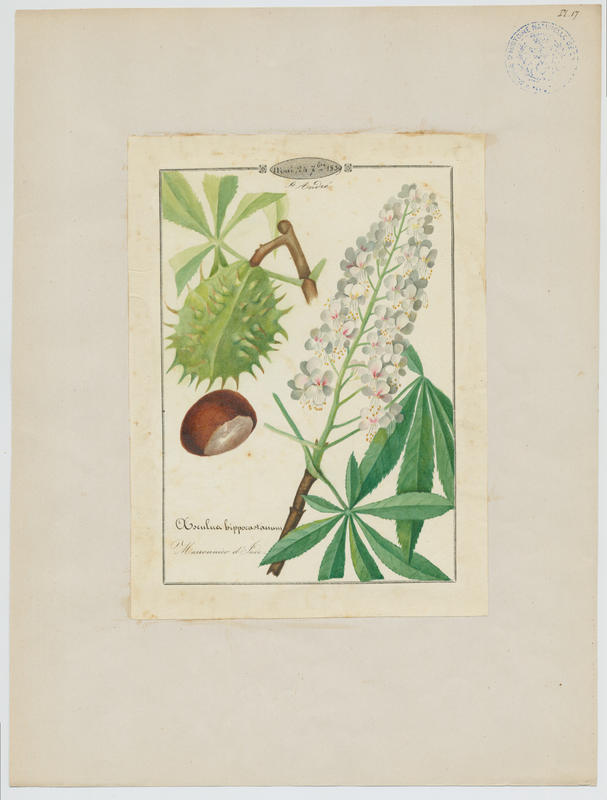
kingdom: Plantae
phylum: Tracheophyta
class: Magnoliopsida
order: Sapindales
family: Sapindaceae
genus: Aesculus
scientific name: Aesculus hippocastanum
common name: Horse-chestnut
